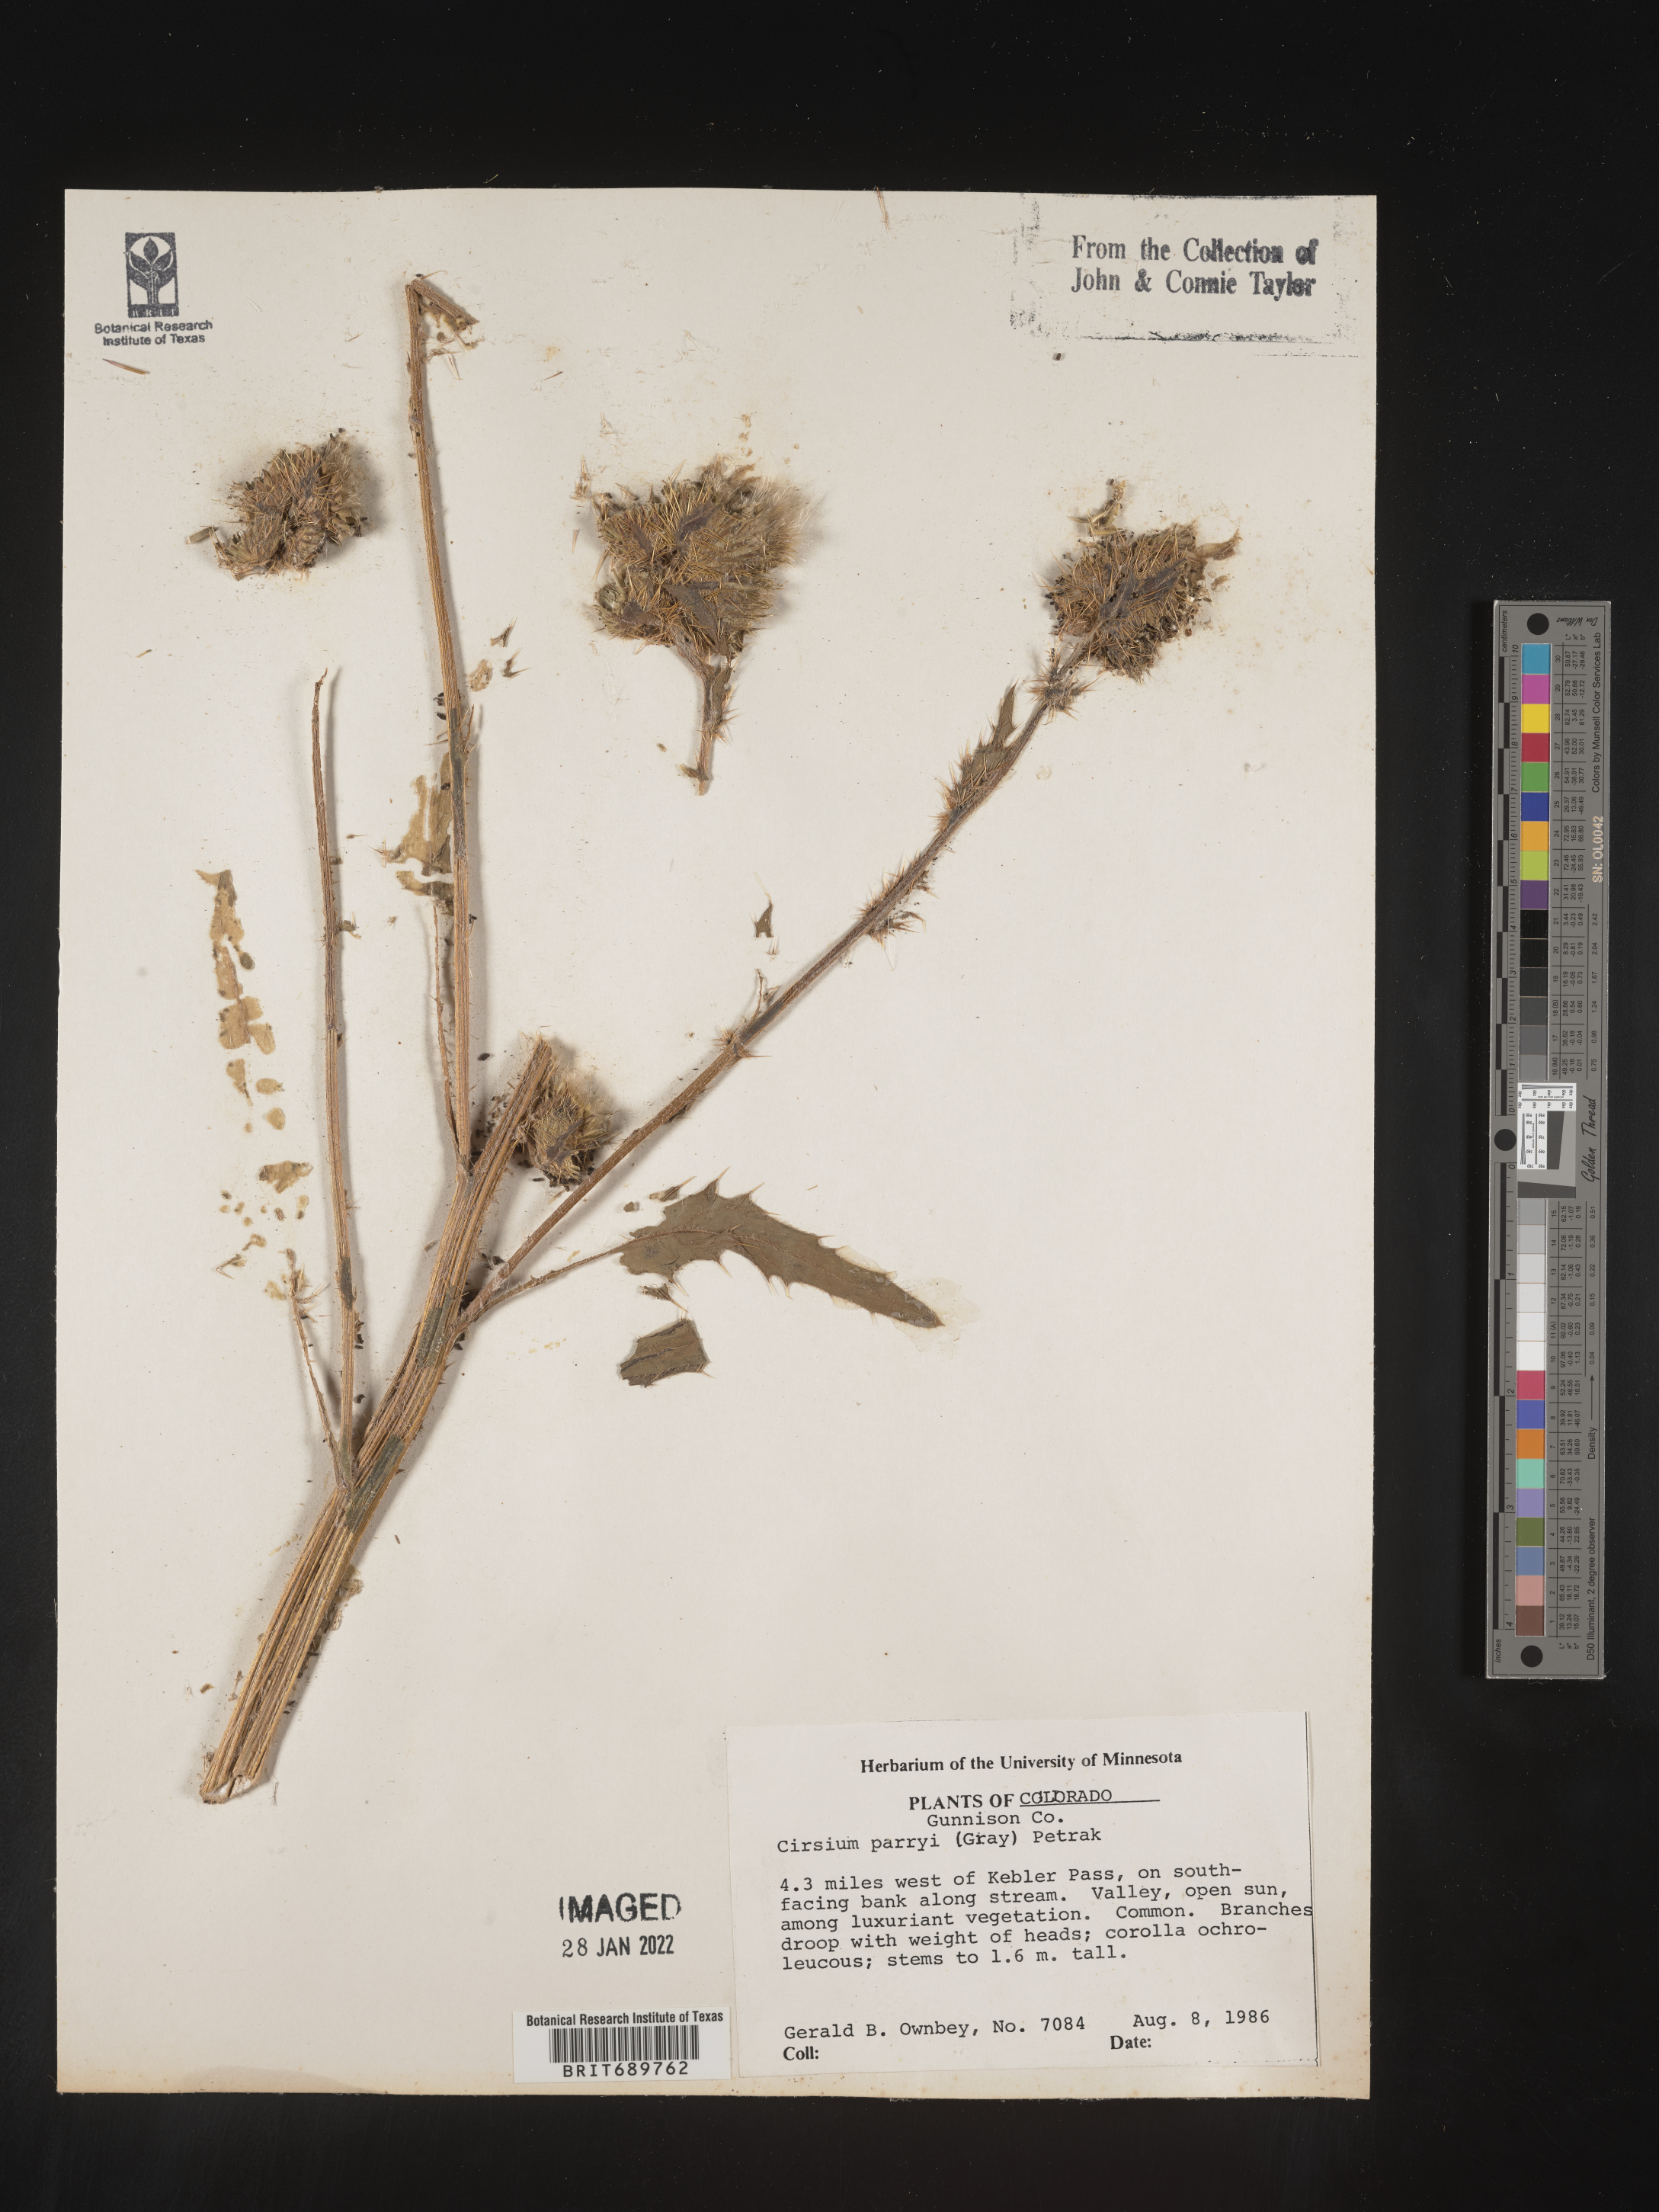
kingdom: Plantae
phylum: Tracheophyta
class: Magnoliopsida
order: Asterales
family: Asteraceae
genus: Cirsium
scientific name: Cirsium parryi
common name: Parry's thistle
